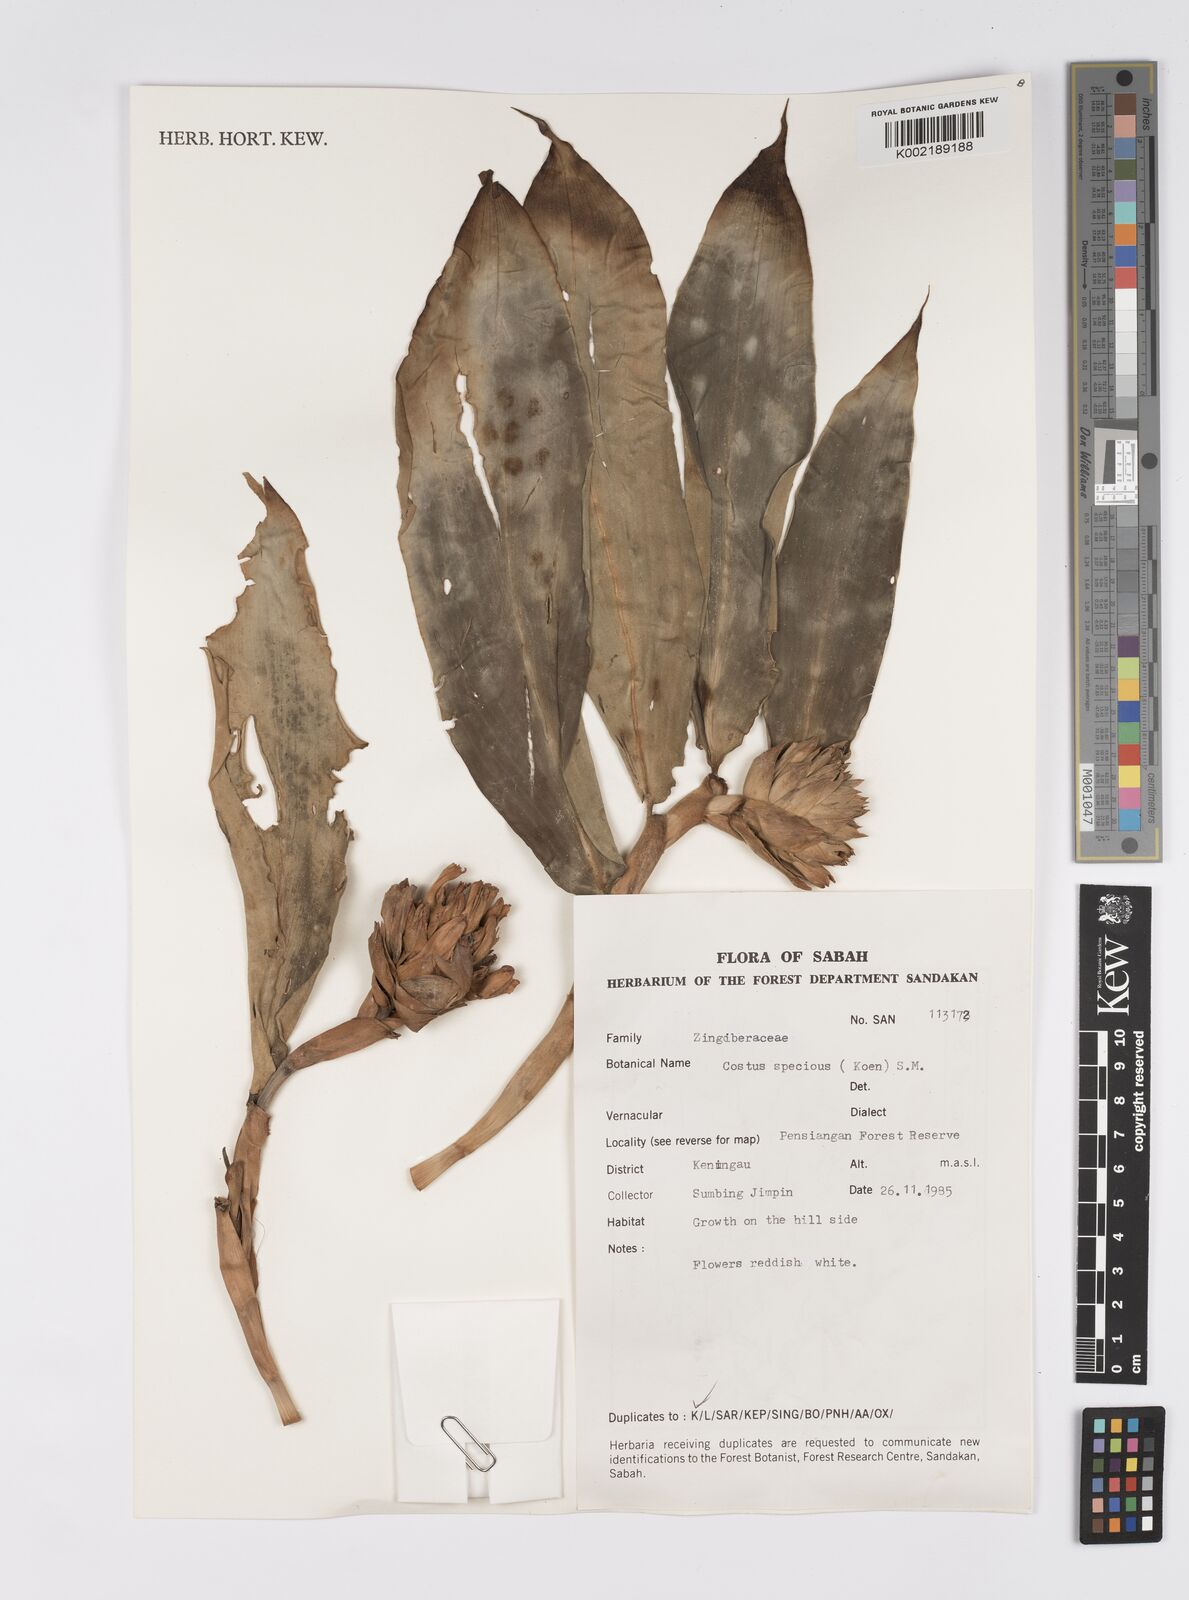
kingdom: Plantae
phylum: Tracheophyta
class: Liliopsida
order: Zingiberales
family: Costaceae
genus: Hellenia
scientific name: Hellenia speciosa
